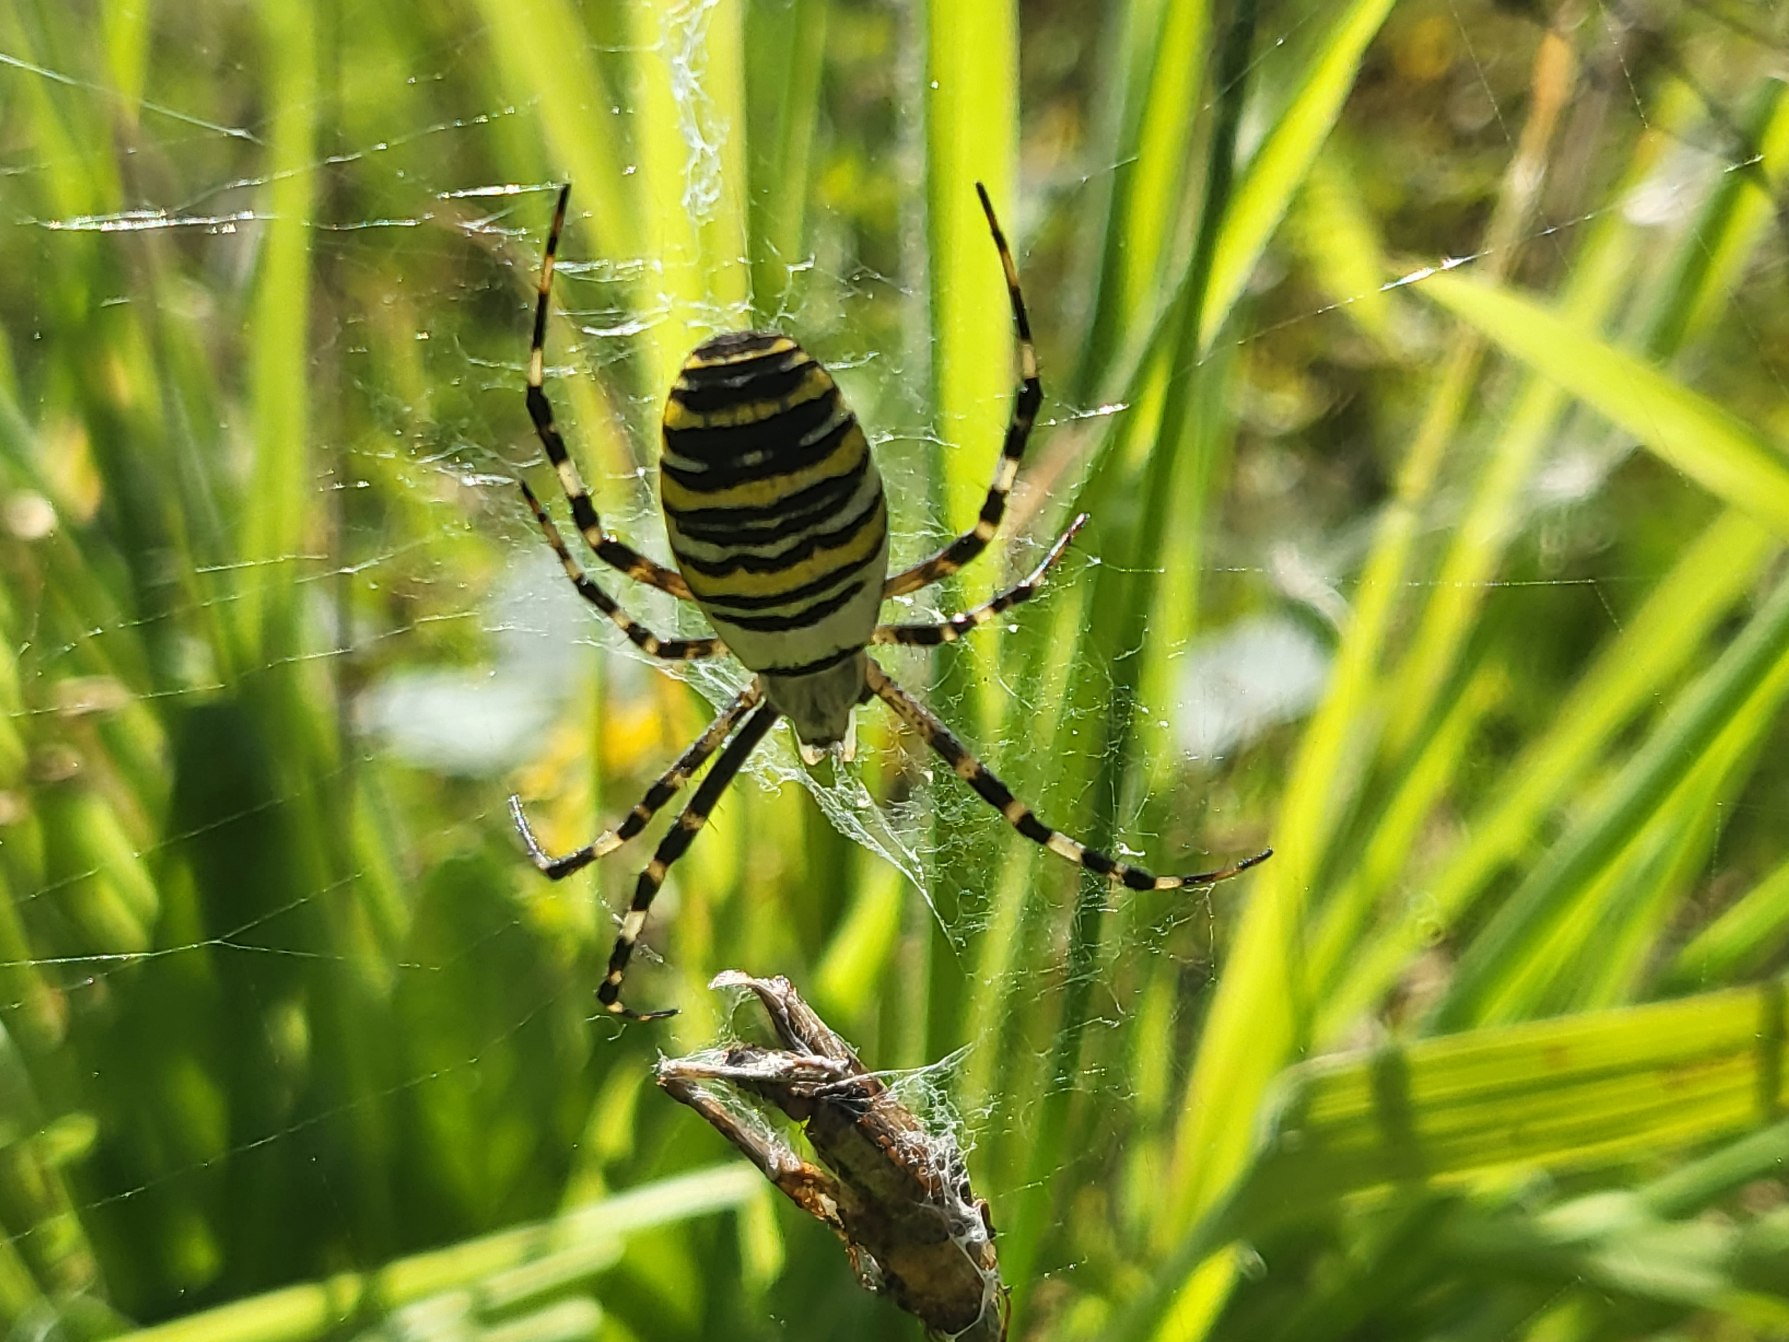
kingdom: Animalia
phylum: Arthropoda
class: Arachnida
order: Araneae
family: Araneidae
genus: Argiope
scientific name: Argiope bruennichi
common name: Hvepseedderkop
